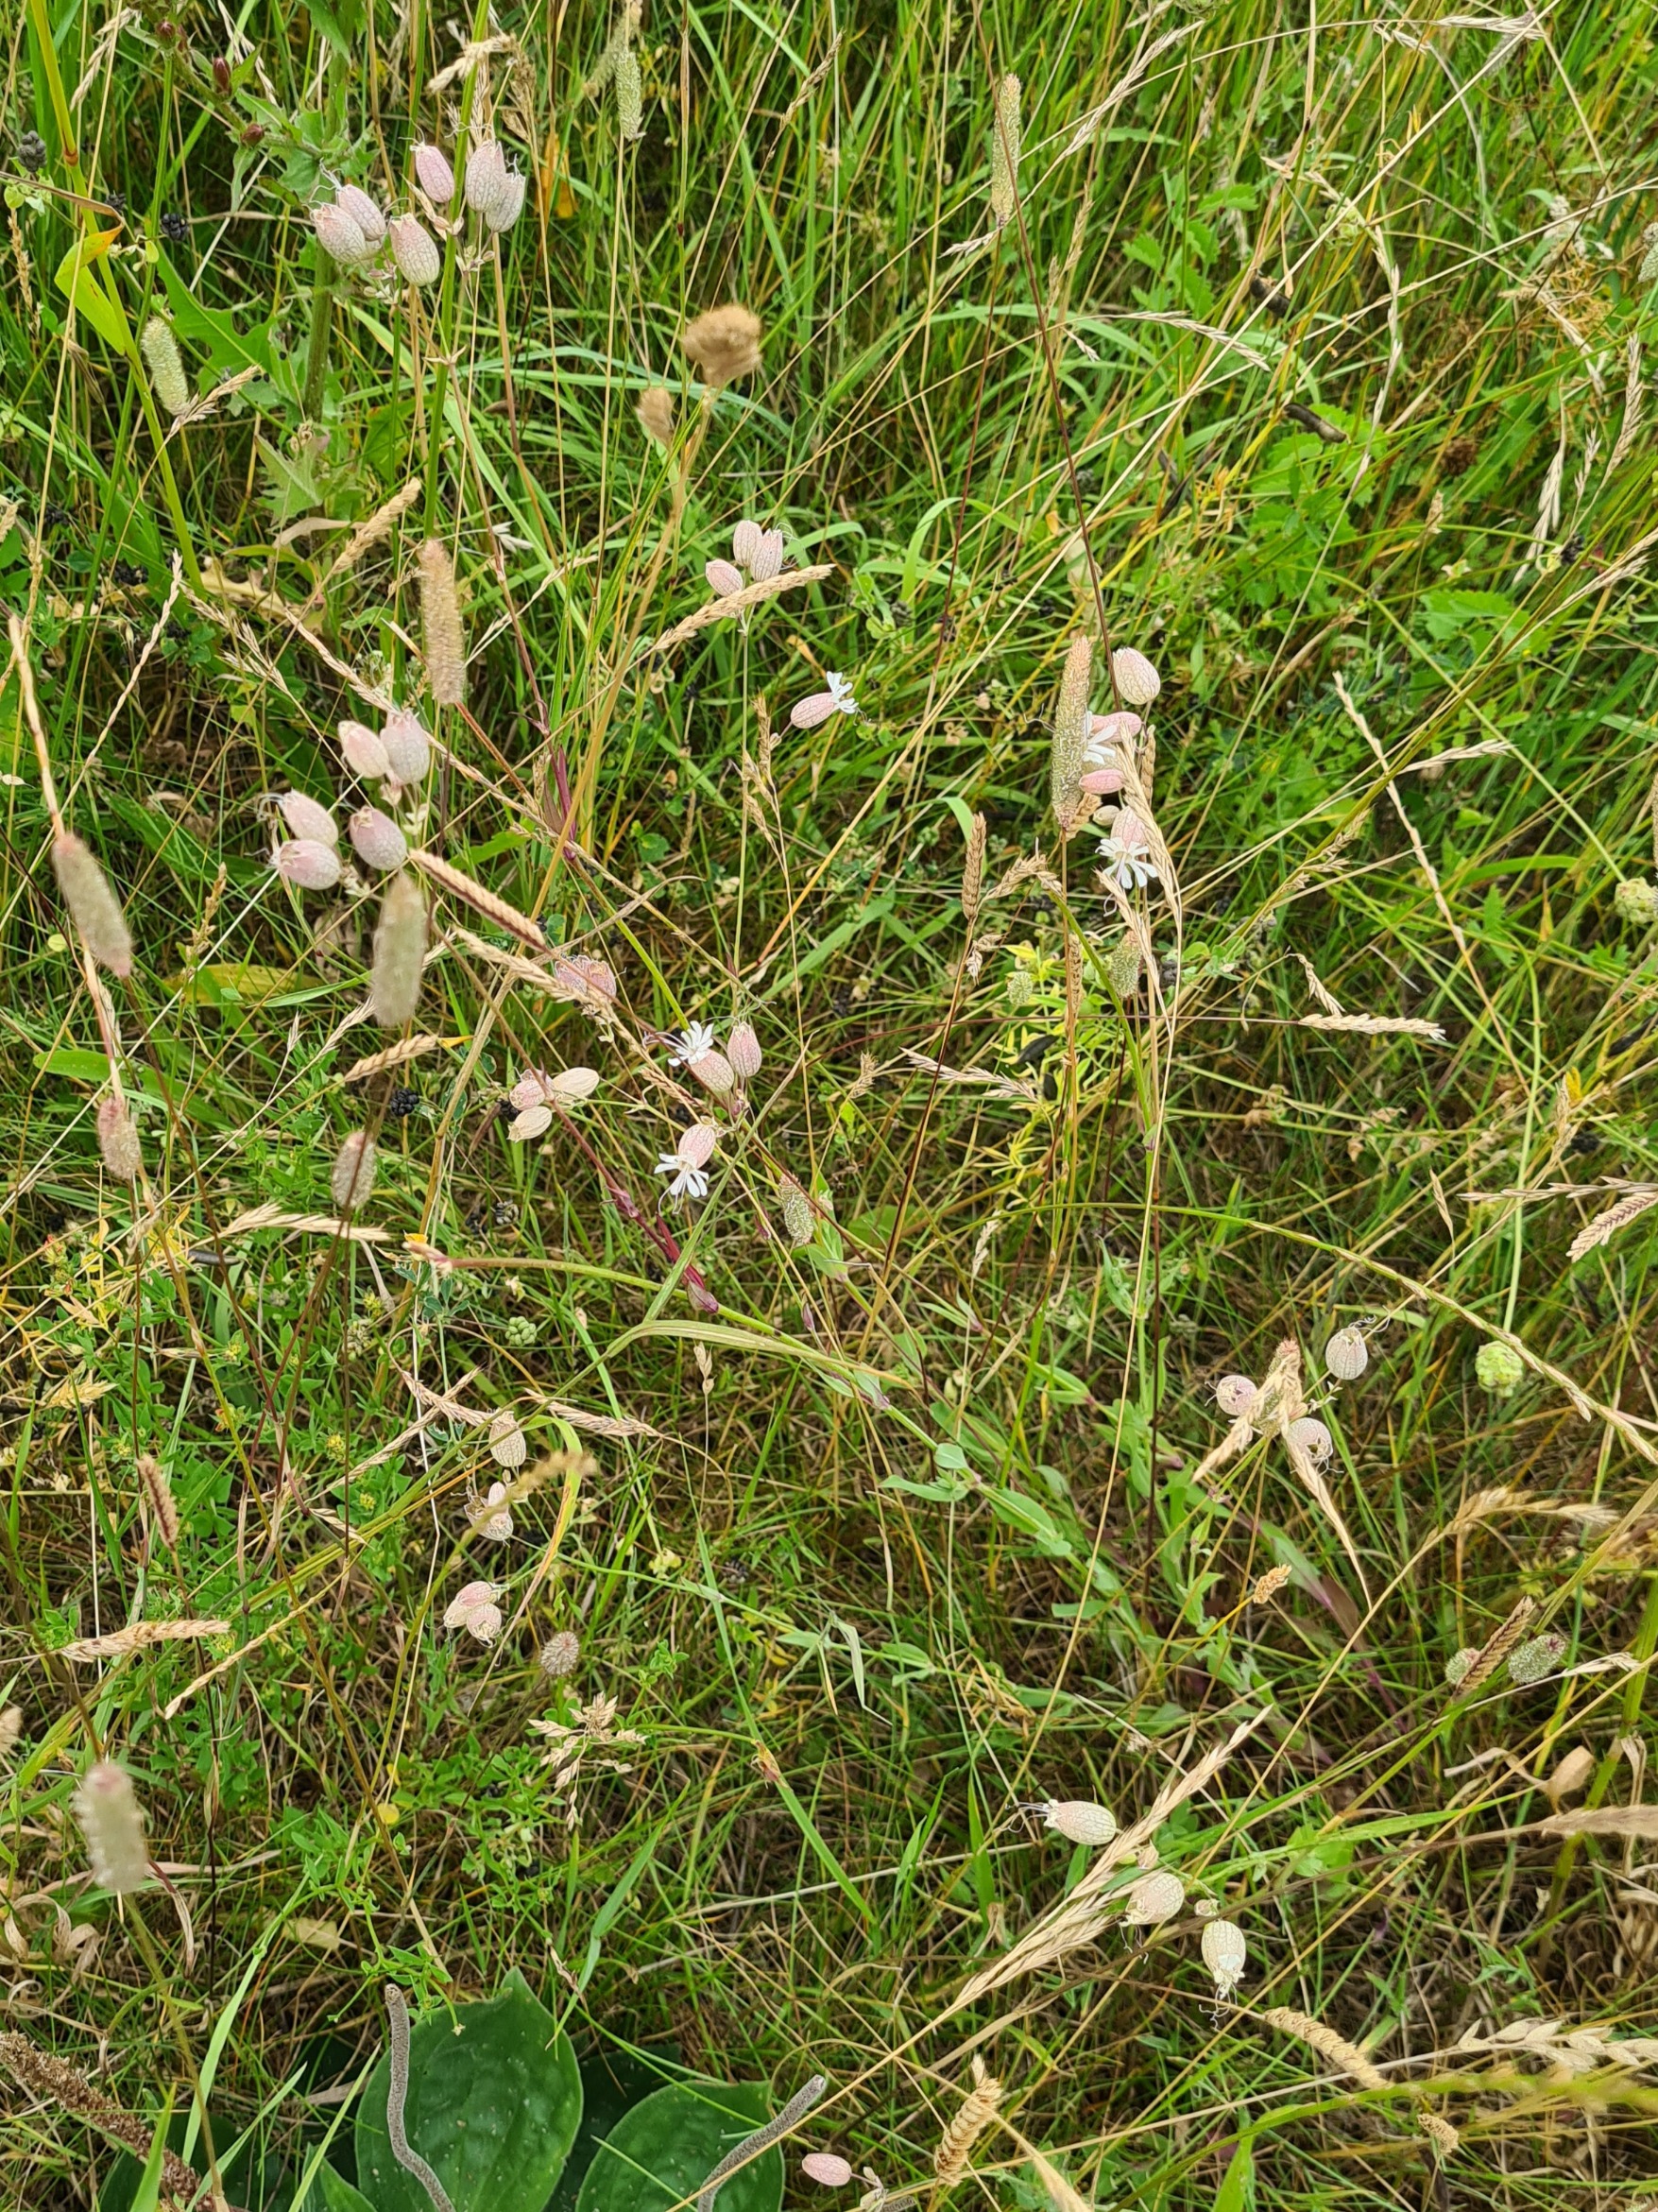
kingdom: Plantae
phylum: Tracheophyta
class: Magnoliopsida
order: Caryophyllales
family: Caryophyllaceae
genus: Silene
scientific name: Silene vulgaris
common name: Blæresmælde
